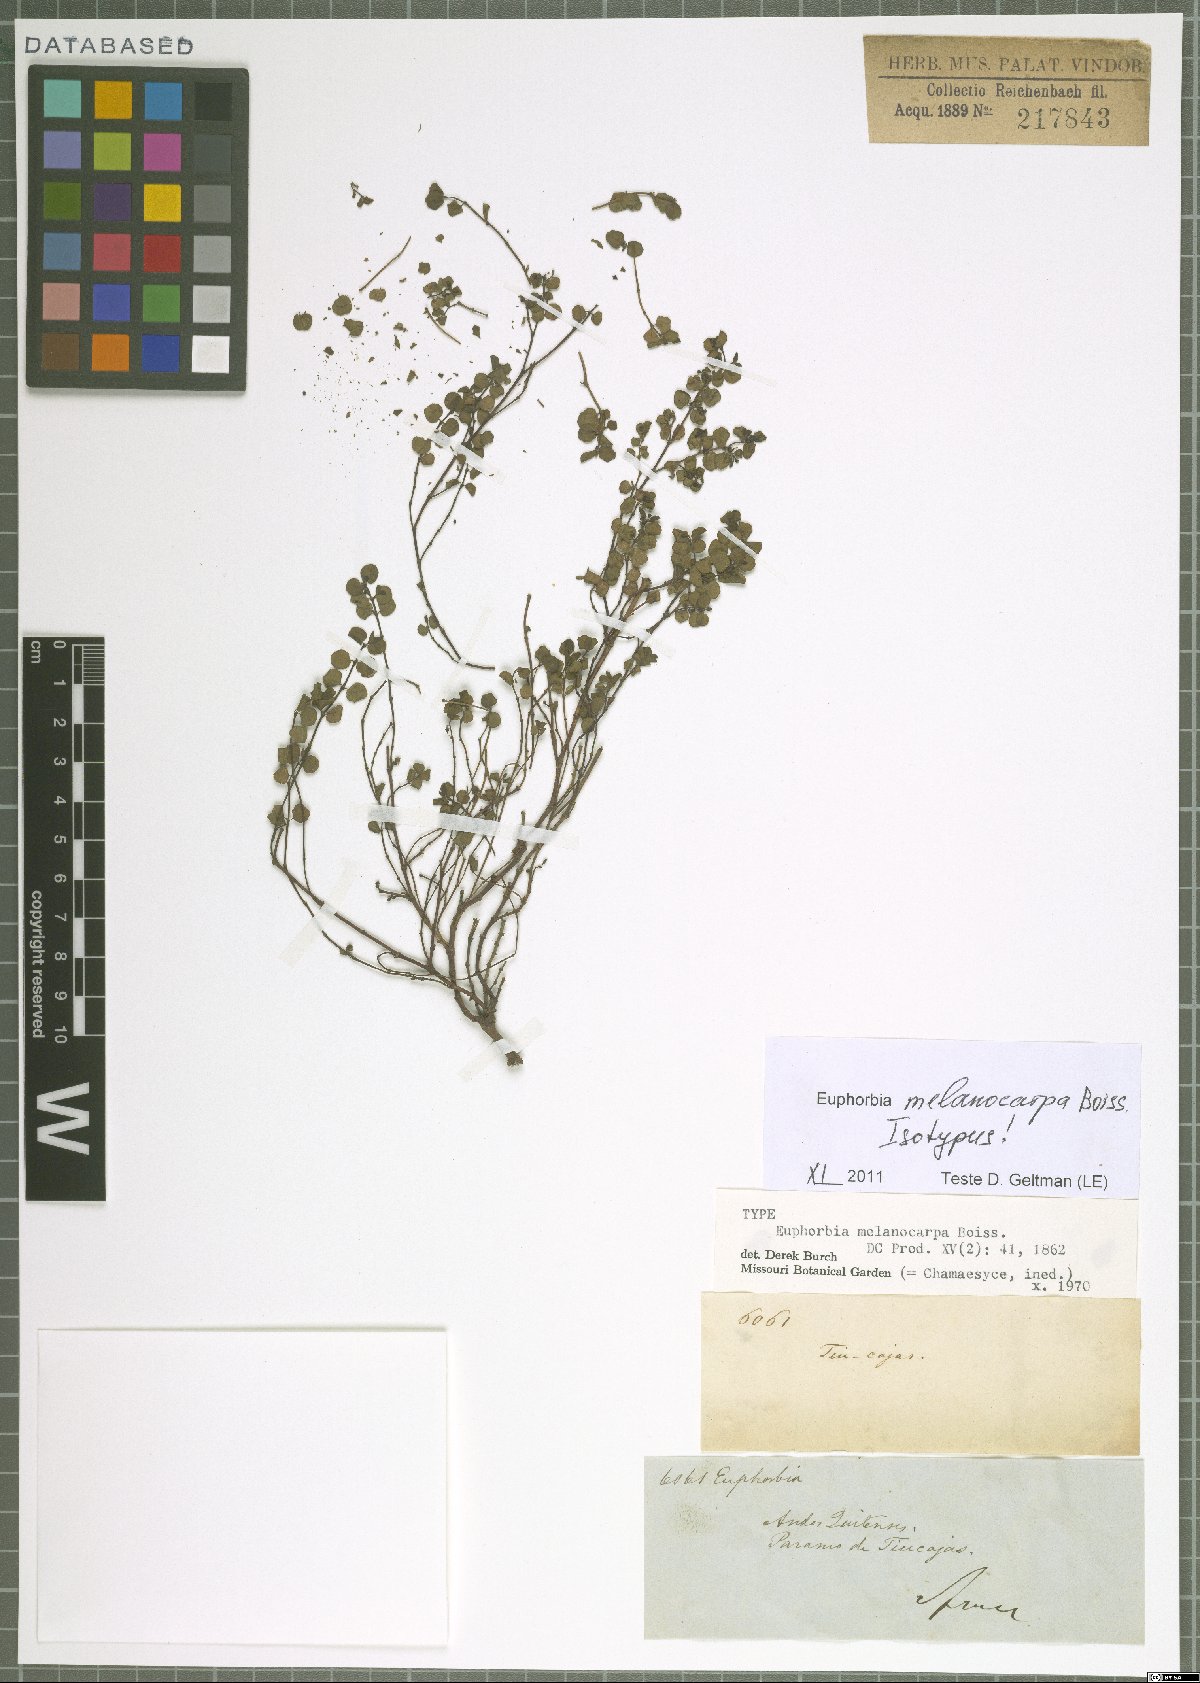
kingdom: Plantae
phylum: Tracheophyta
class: Magnoliopsida
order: Malpighiales
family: Euphorbiaceae
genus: Euphorbia
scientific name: Euphorbia melanocarpa
